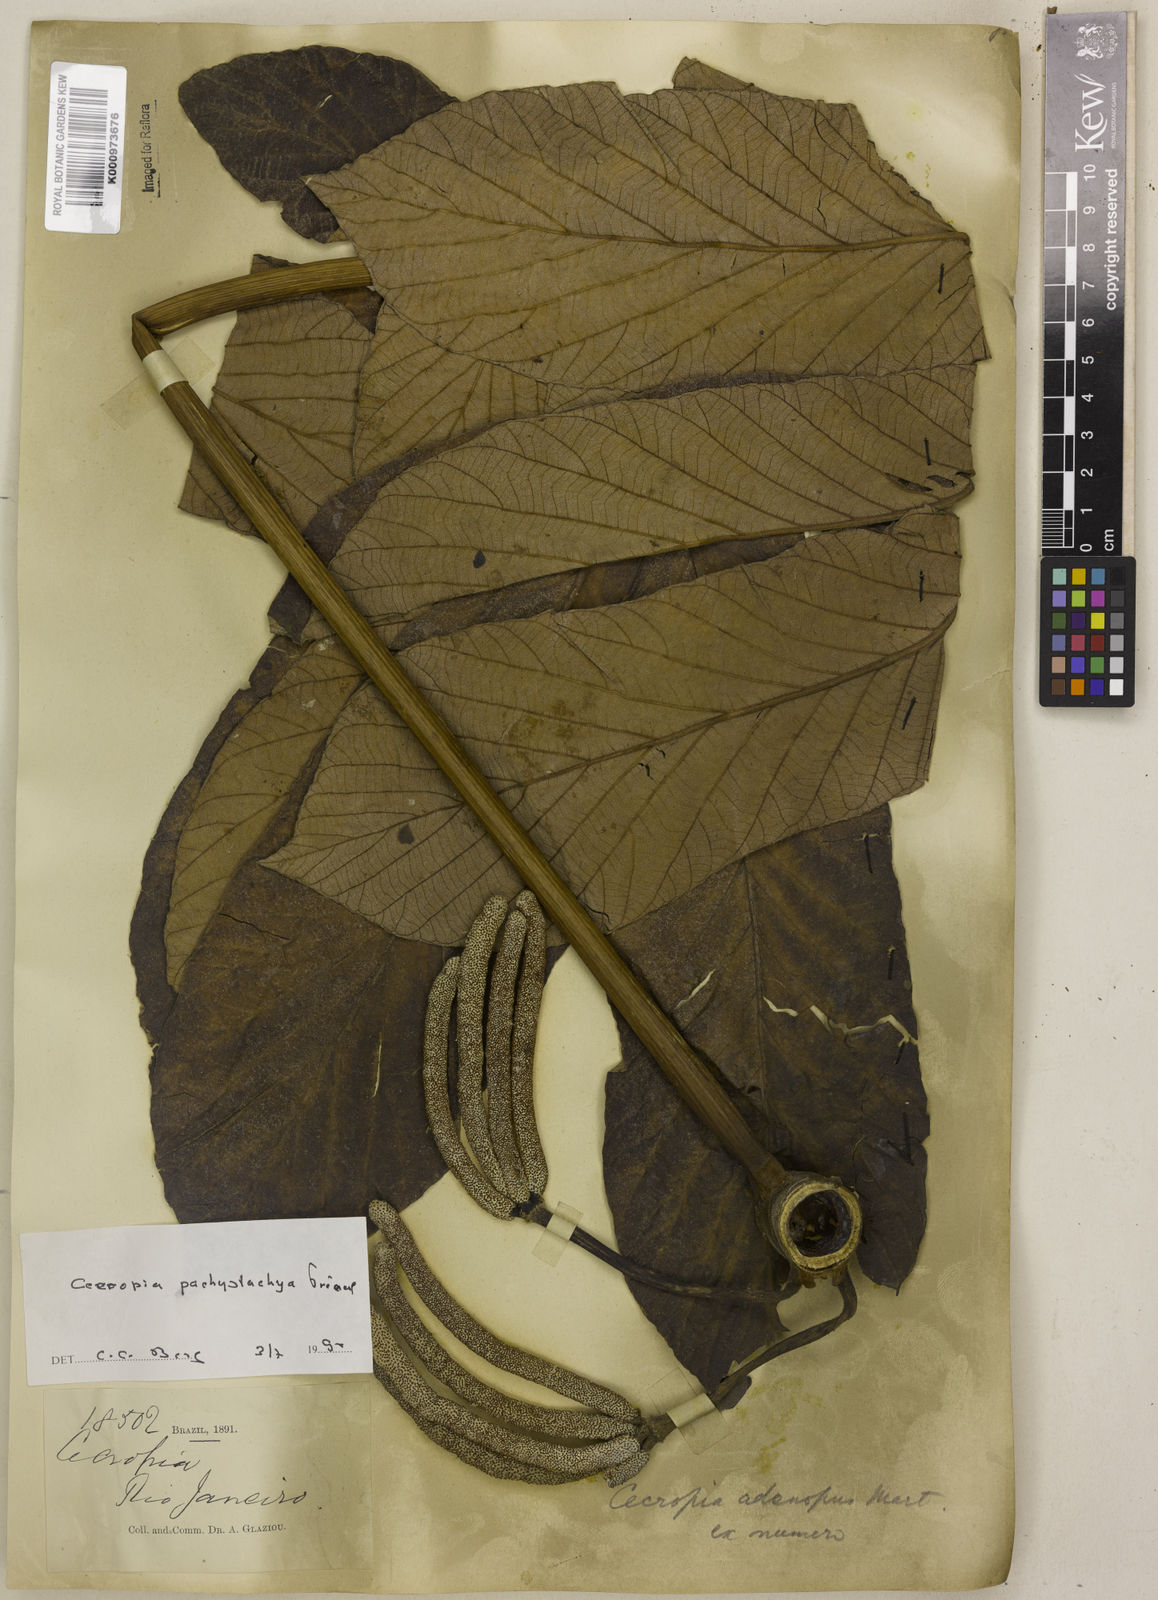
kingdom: Plantae
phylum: Tracheophyta
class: Magnoliopsida
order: Rosales
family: Urticaceae
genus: Cecropia
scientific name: Cecropia
